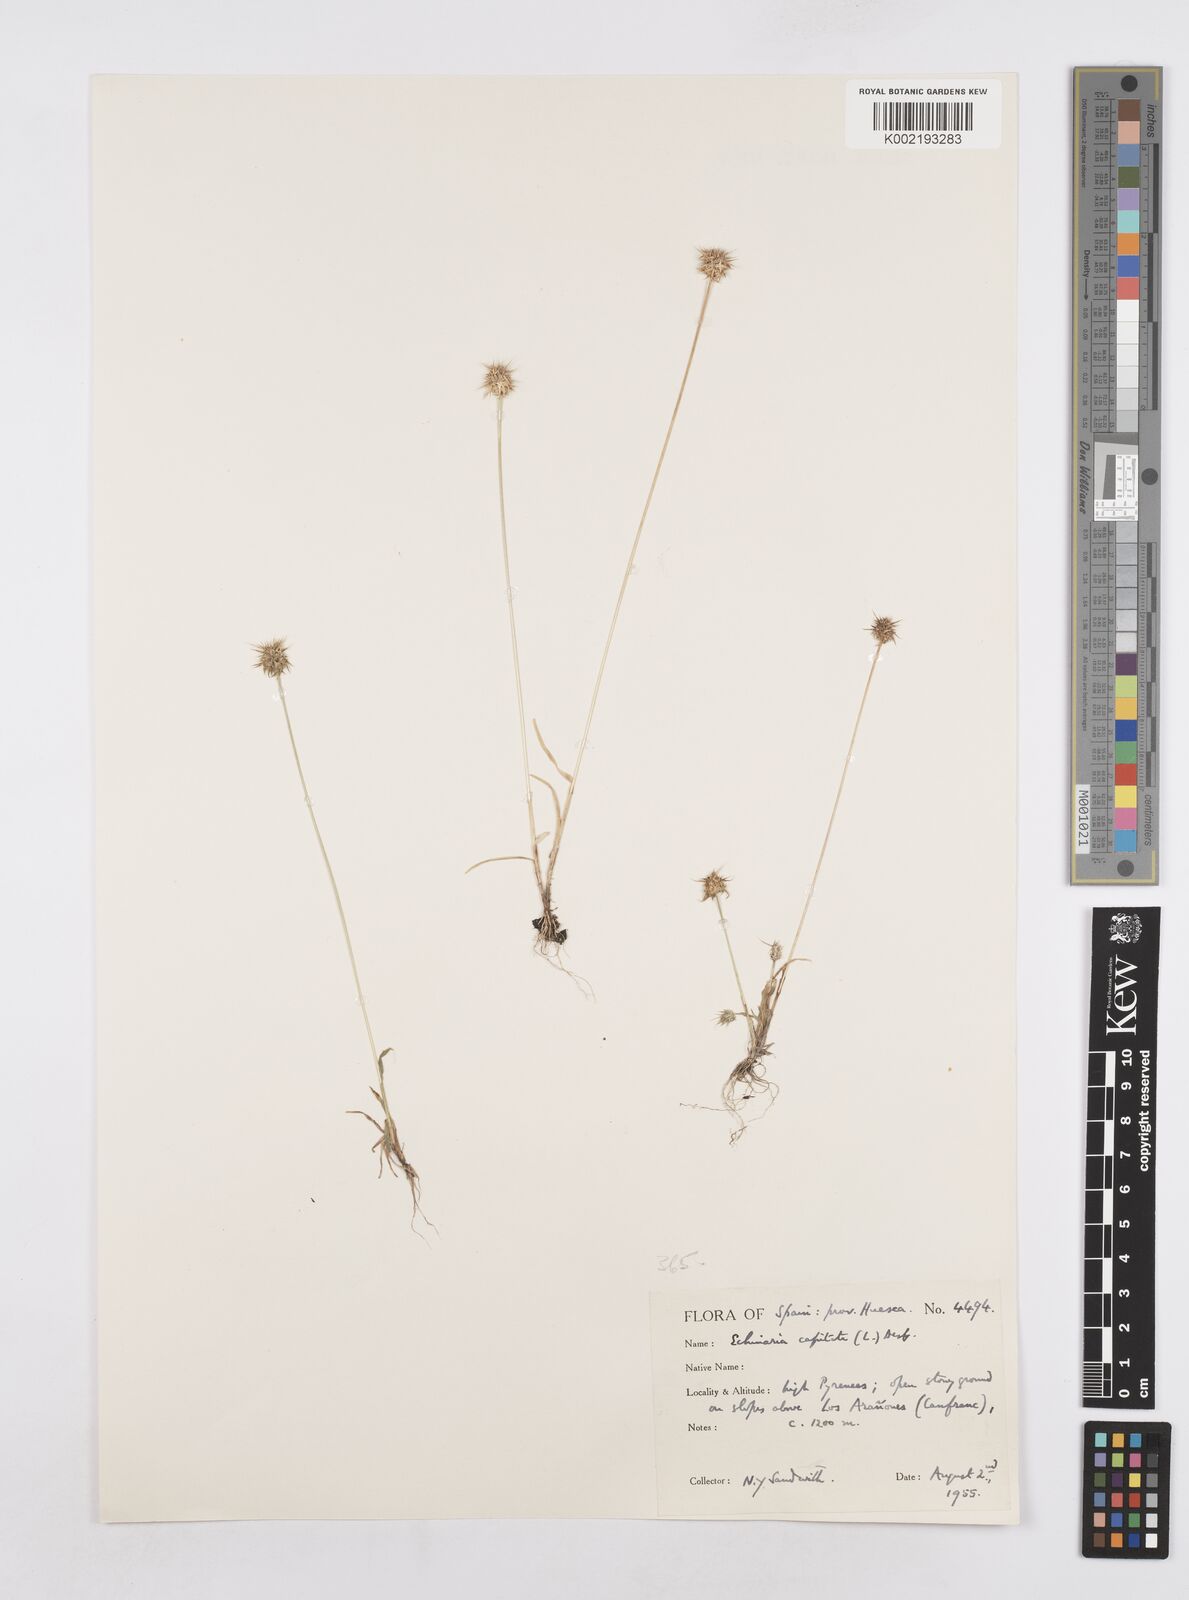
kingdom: Plantae
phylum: Tracheophyta
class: Liliopsida
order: Poales
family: Poaceae
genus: Echinaria
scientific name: Echinaria capitata
